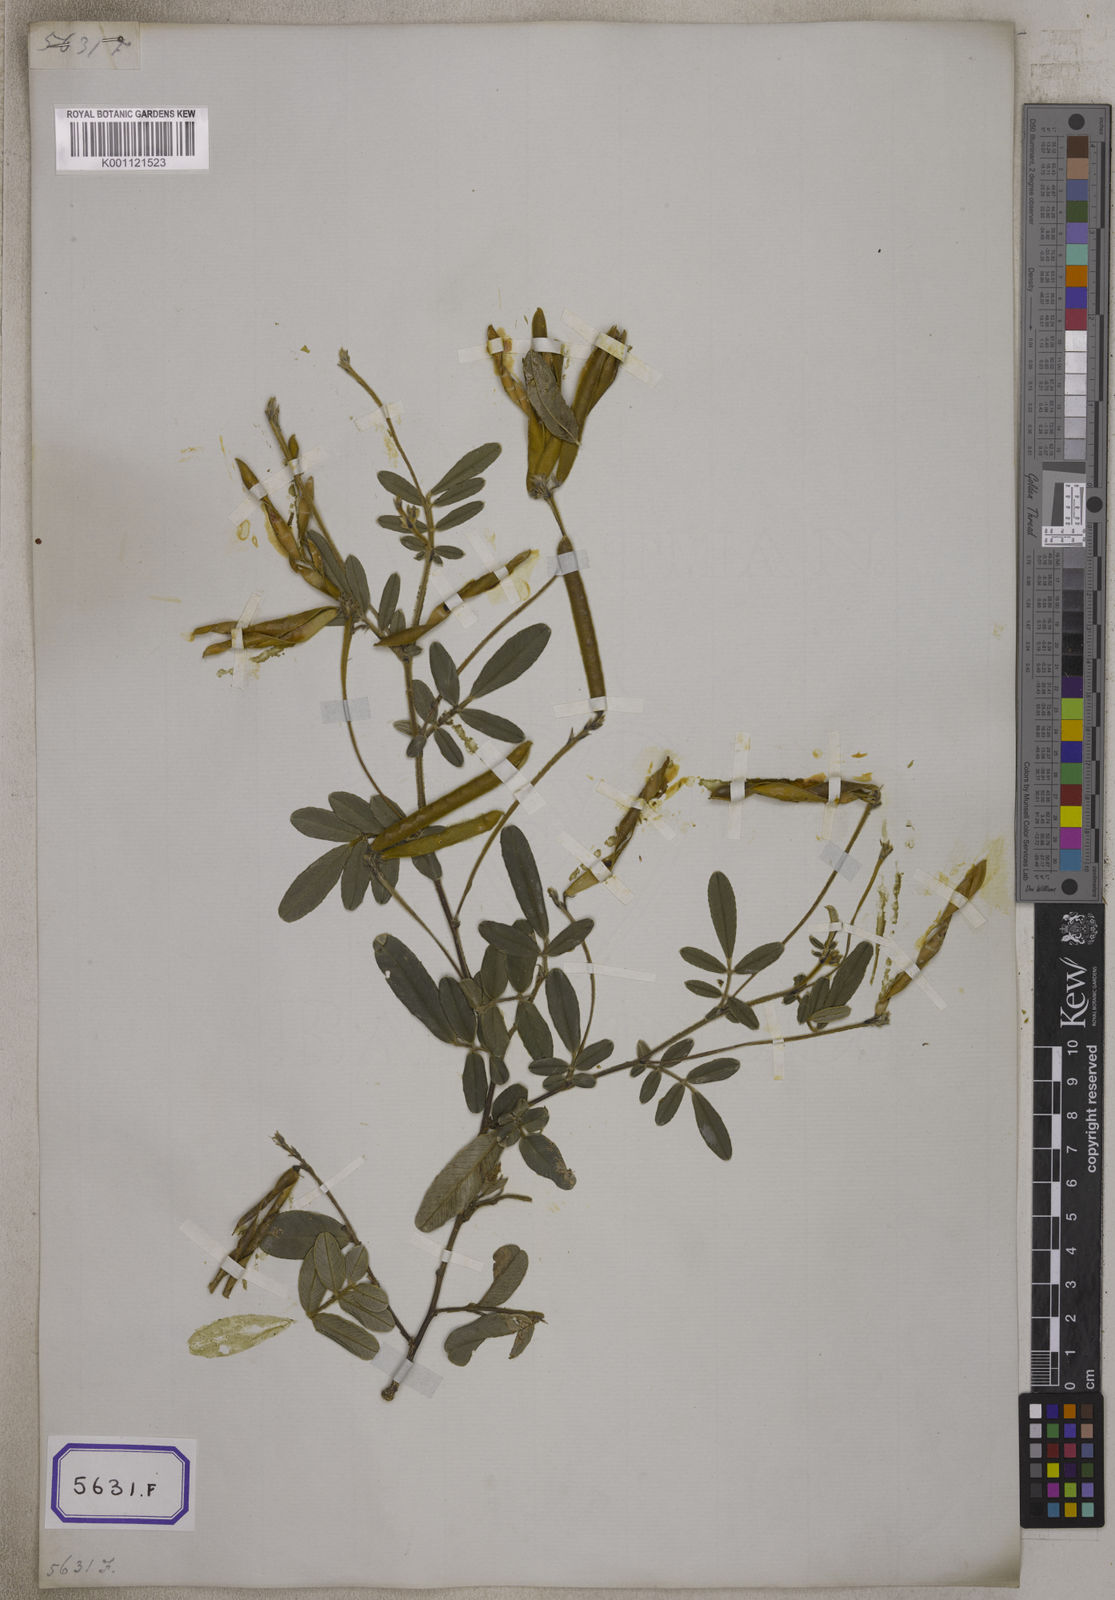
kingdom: Plantae
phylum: Tracheophyta
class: Magnoliopsida
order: Fabales
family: Fabaceae
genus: Tephrosia
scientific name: Tephrosia
